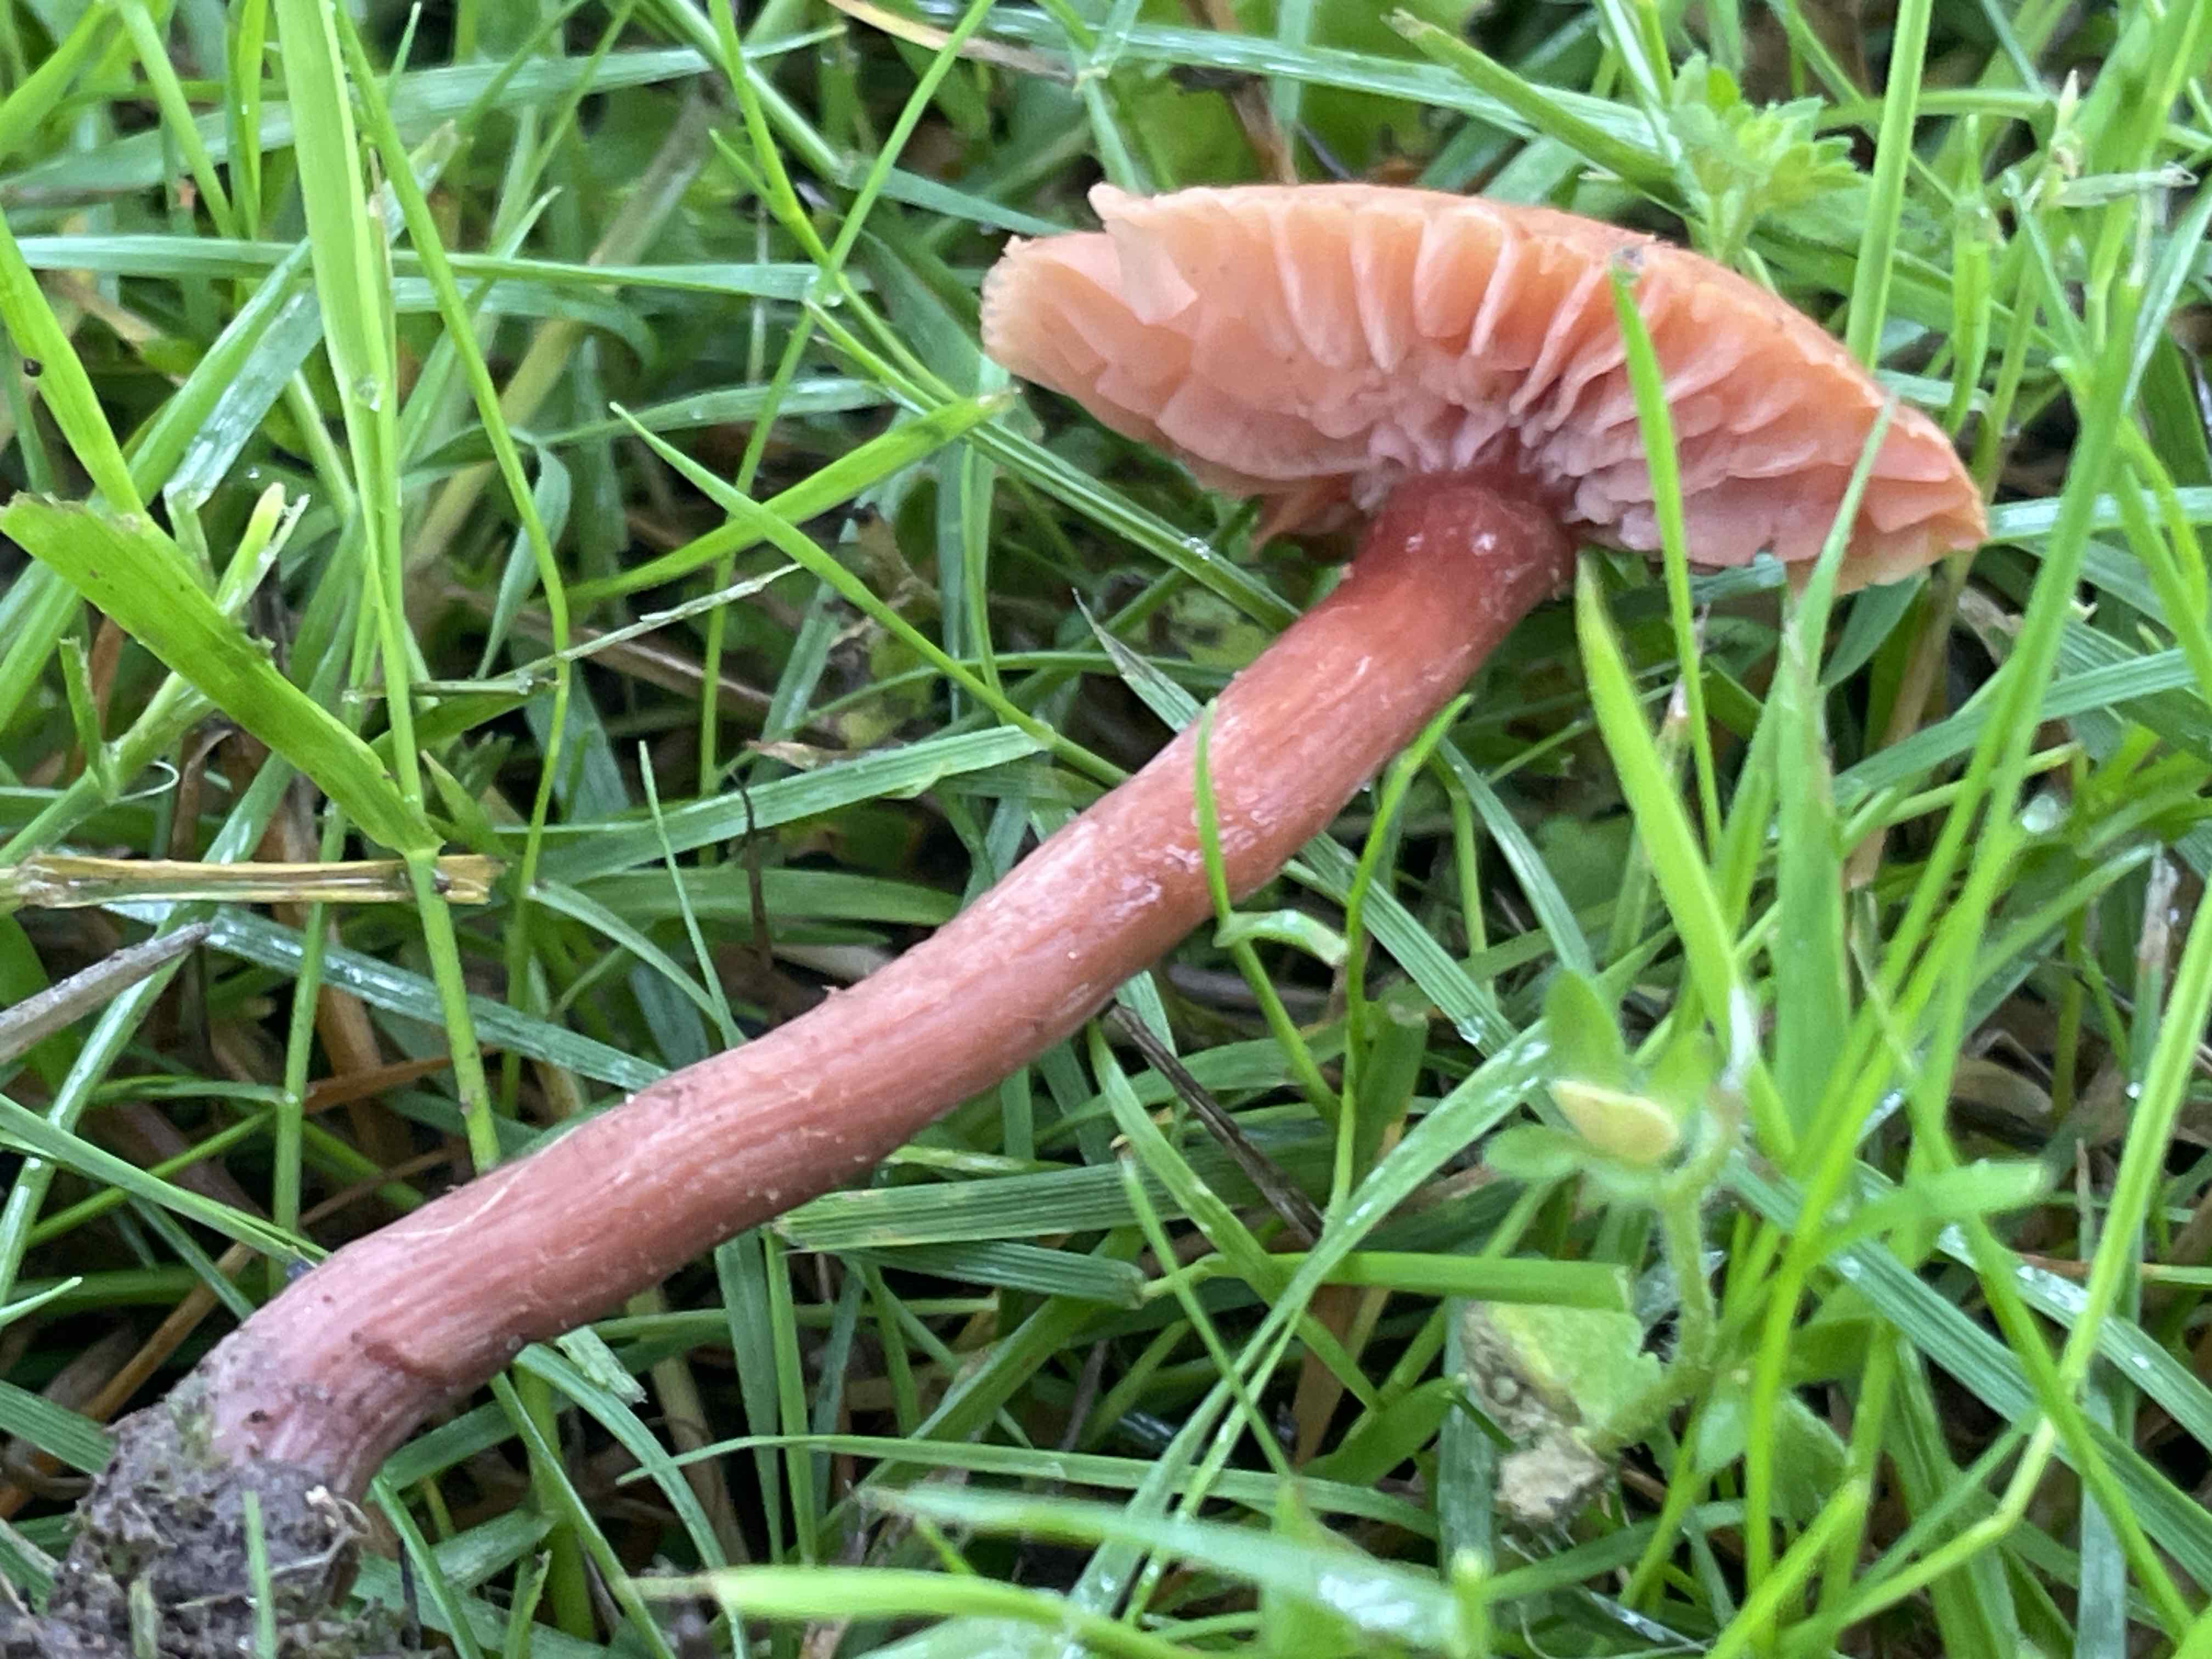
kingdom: Fungi
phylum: Basidiomycota
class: Agaricomycetes
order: Agaricales
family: Hydnangiaceae
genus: Laccaria
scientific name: Laccaria laccata
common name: rød ametysthat
